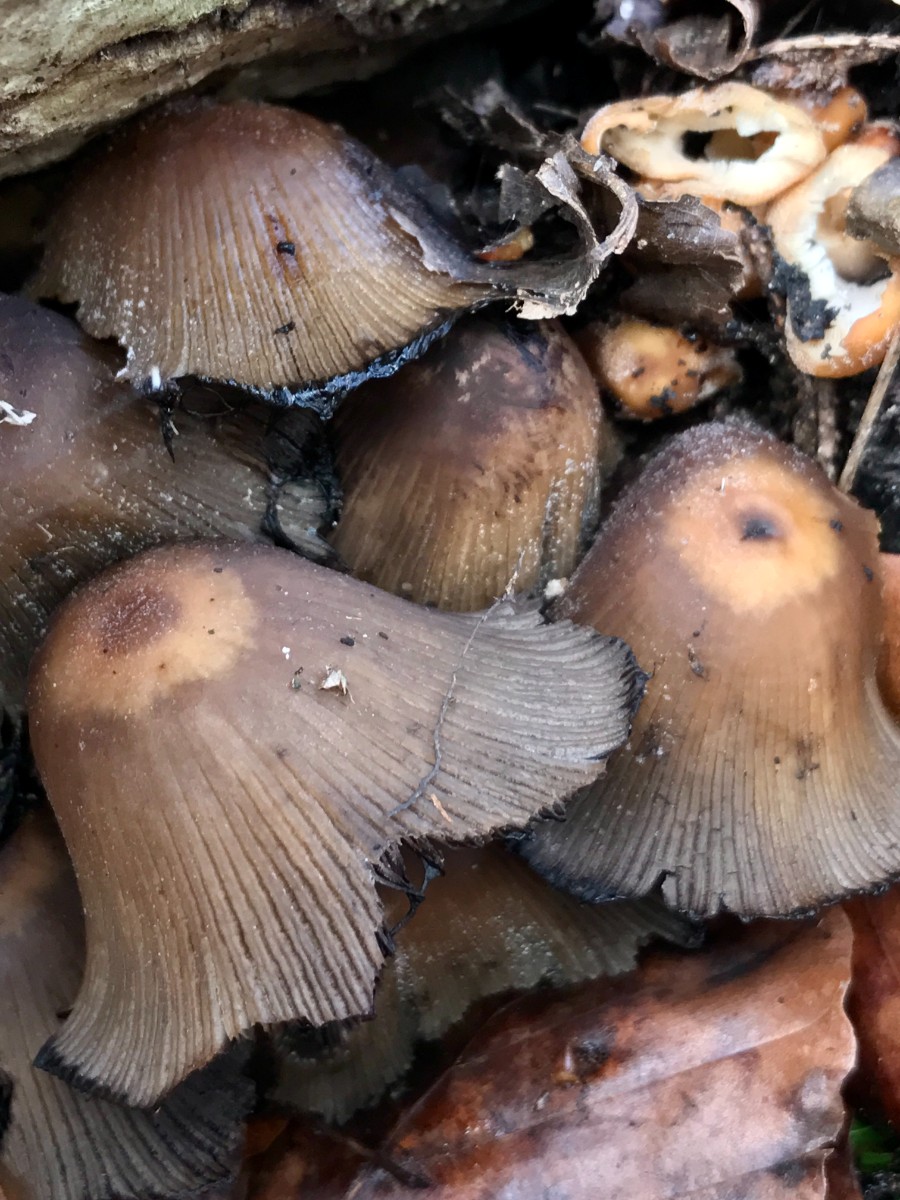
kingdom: Fungi
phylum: Basidiomycota
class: Agaricomycetes
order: Agaricales
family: Psathyrellaceae
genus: Coprinellus
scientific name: Coprinellus micaceus
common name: glimmer-blækhat
